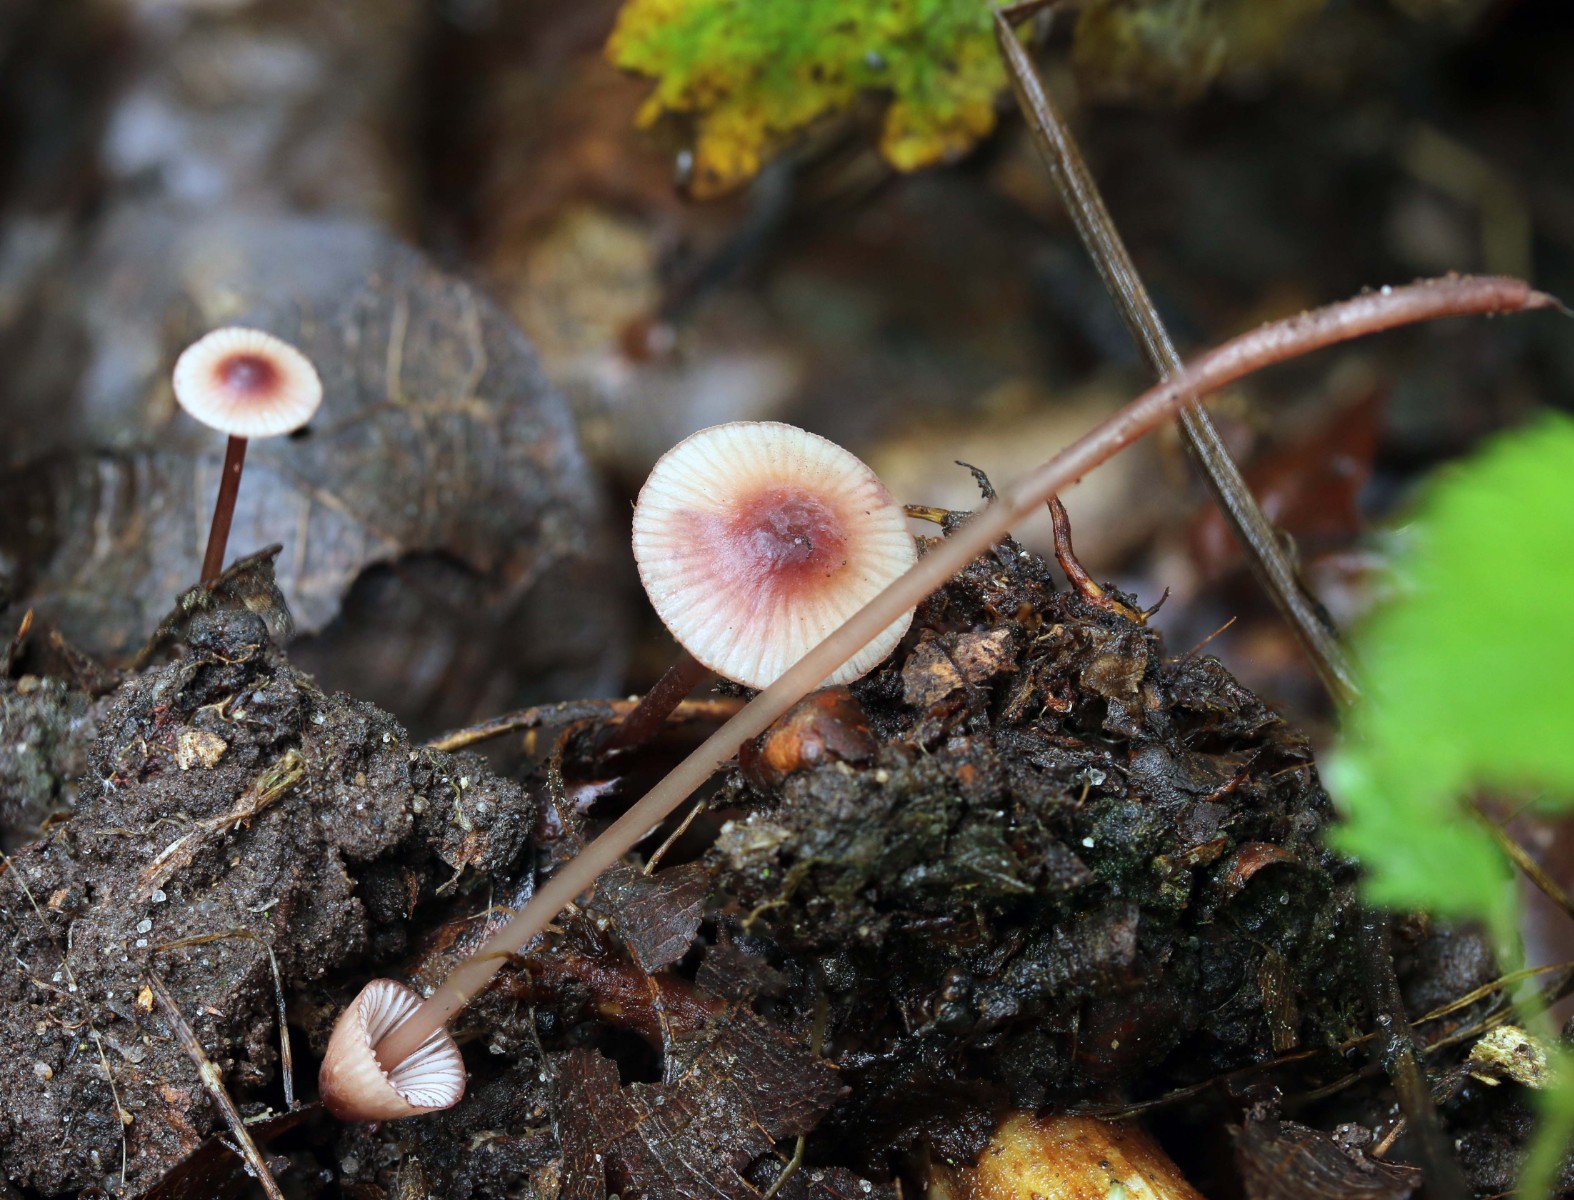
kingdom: Fungi
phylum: Basidiomycota
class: Agaricomycetes
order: Agaricales
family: Mycenaceae
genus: Mycena
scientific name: Mycena sanguinolenta
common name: rødmælket huesvamp
